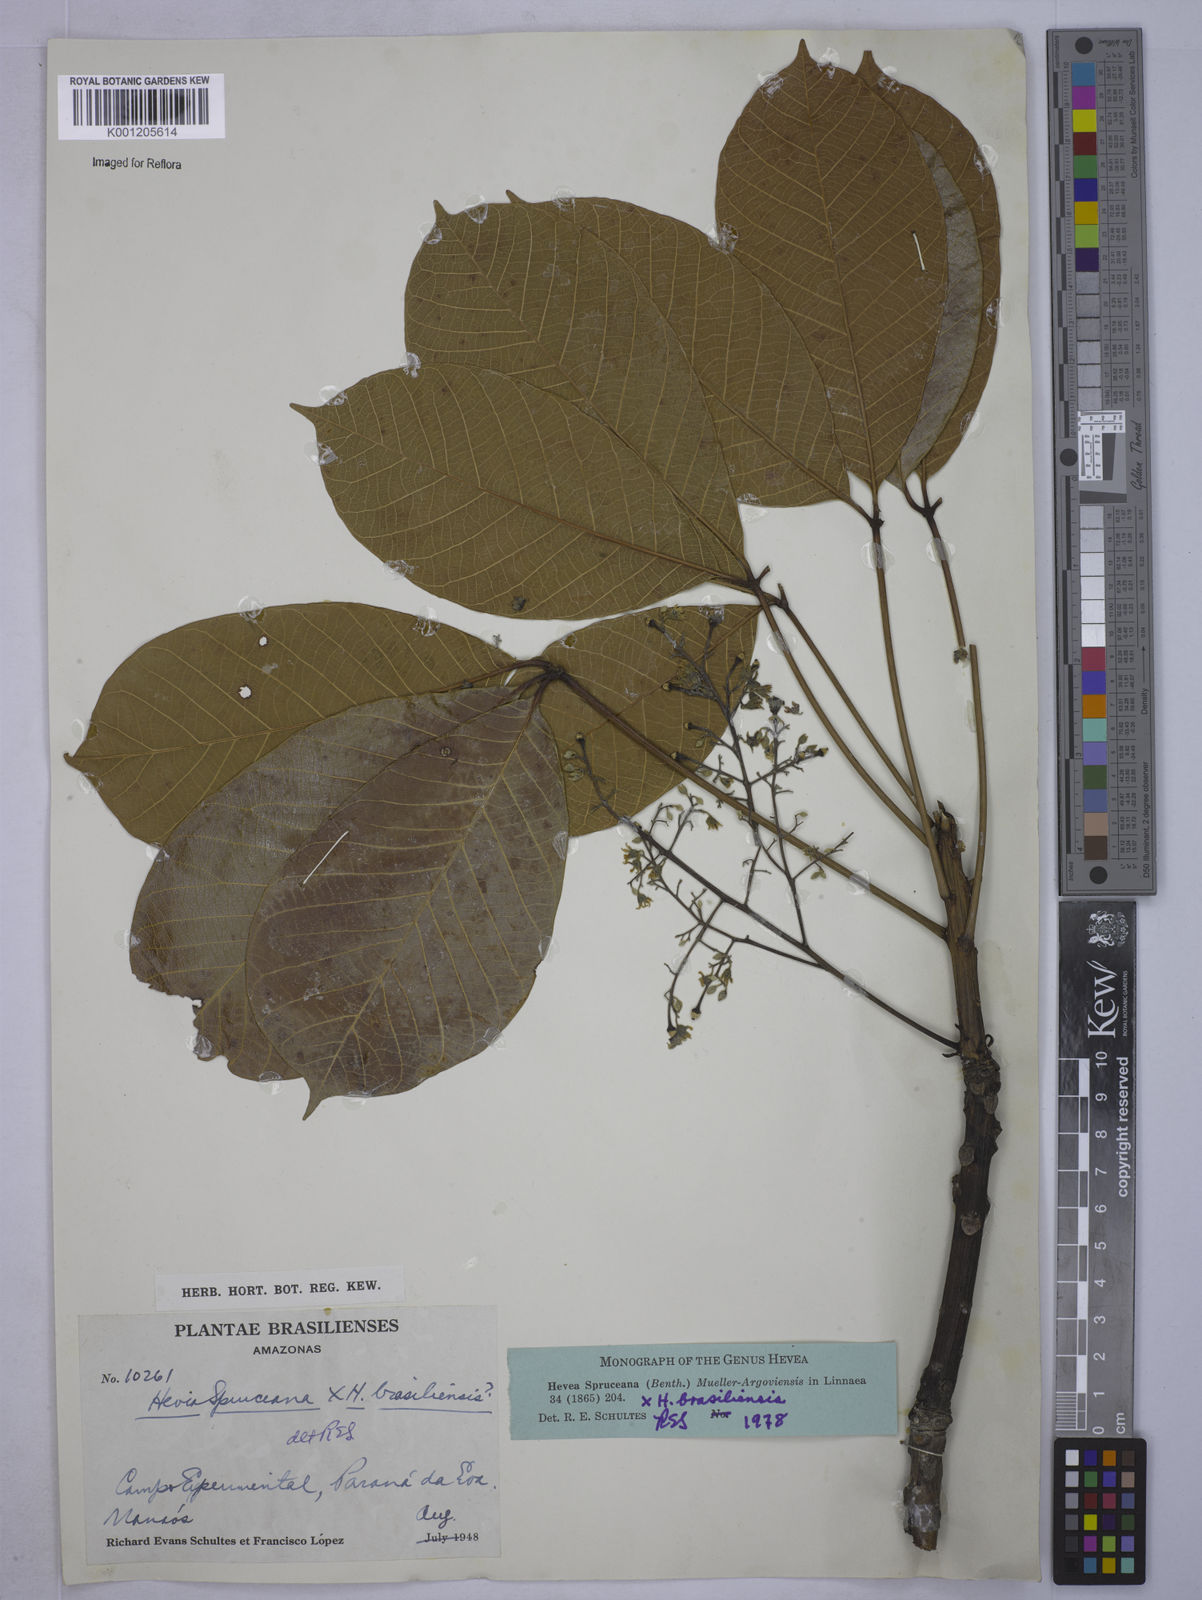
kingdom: Plantae
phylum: Tracheophyta
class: Magnoliopsida
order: Malpighiales
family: Euphorbiaceae
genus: Hevea
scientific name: Hevea
